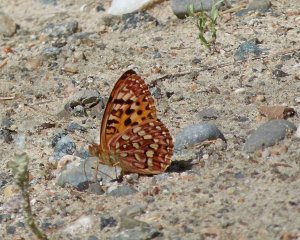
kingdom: Animalia
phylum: Arthropoda
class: Insecta
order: Lepidoptera
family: Nymphalidae
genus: Speyeria
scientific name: Speyeria hydaspe
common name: Hydaspe Fritillary
